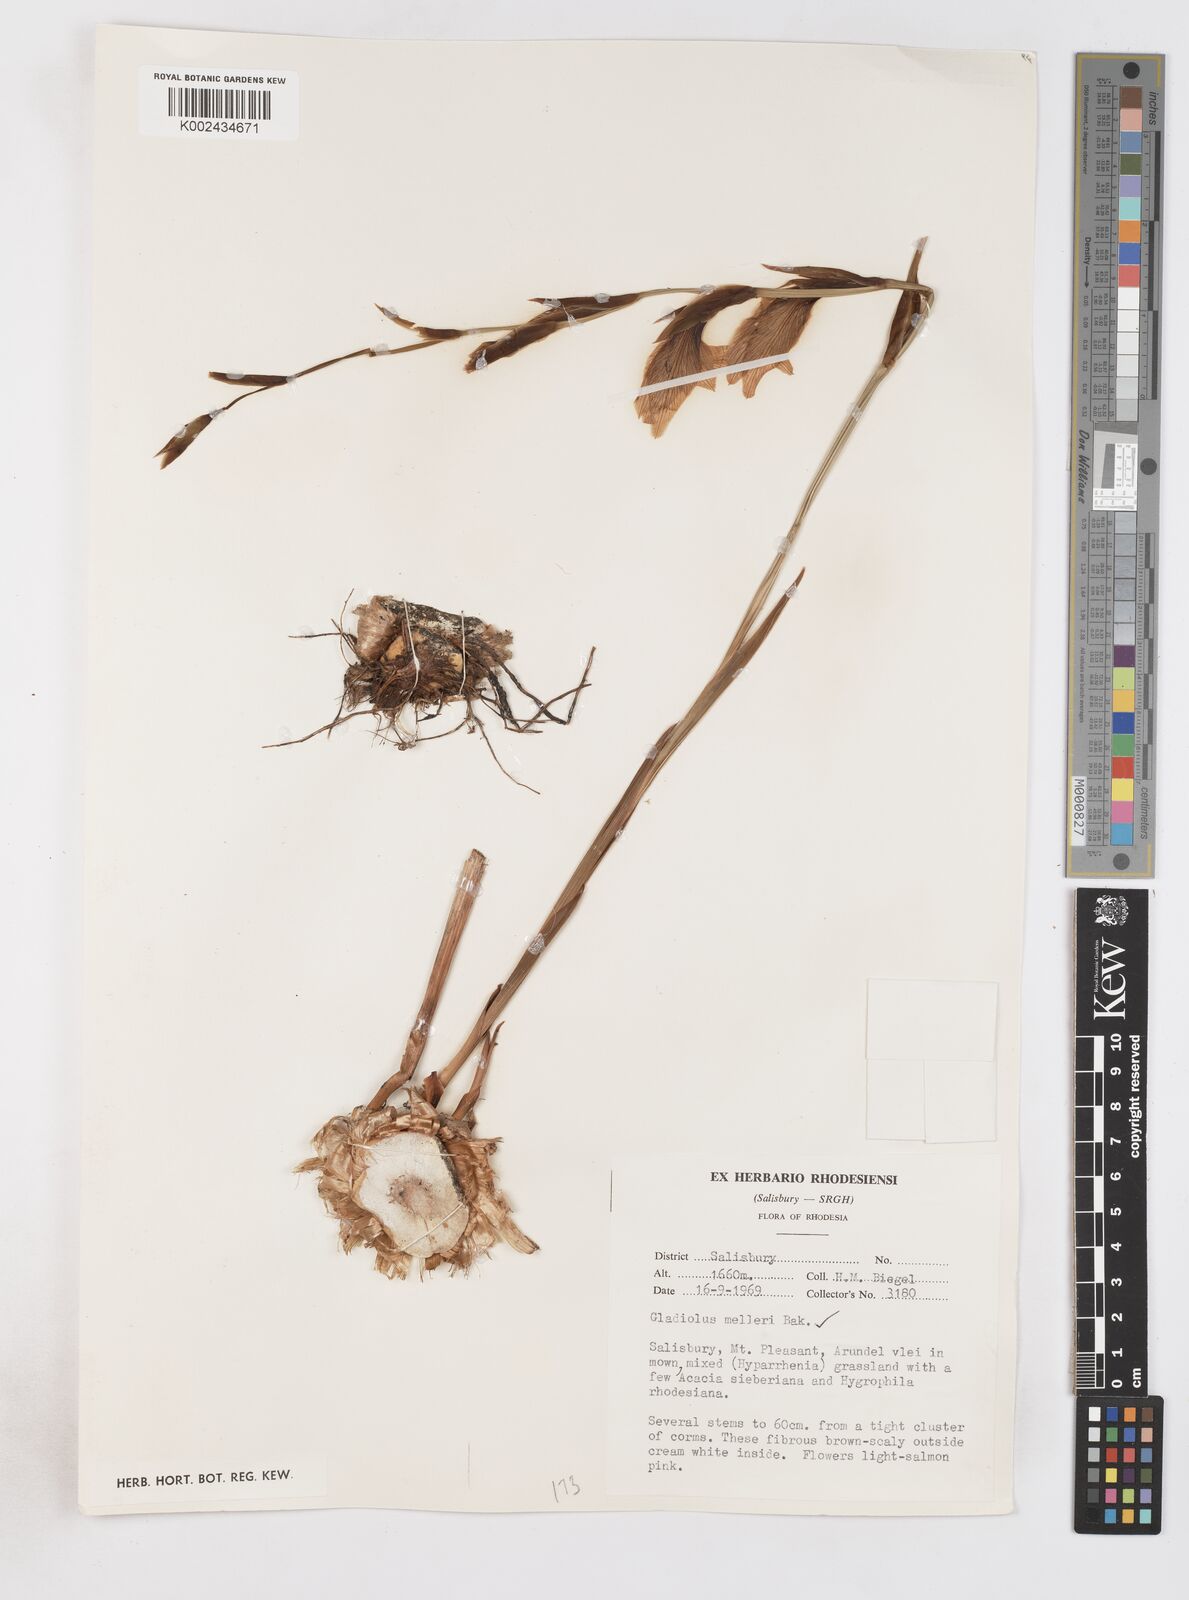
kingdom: Plantae
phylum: Tracheophyta
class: Liliopsida
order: Asparagales
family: Iridaceae
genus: Gladiolus
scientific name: Gladiolus melleri
